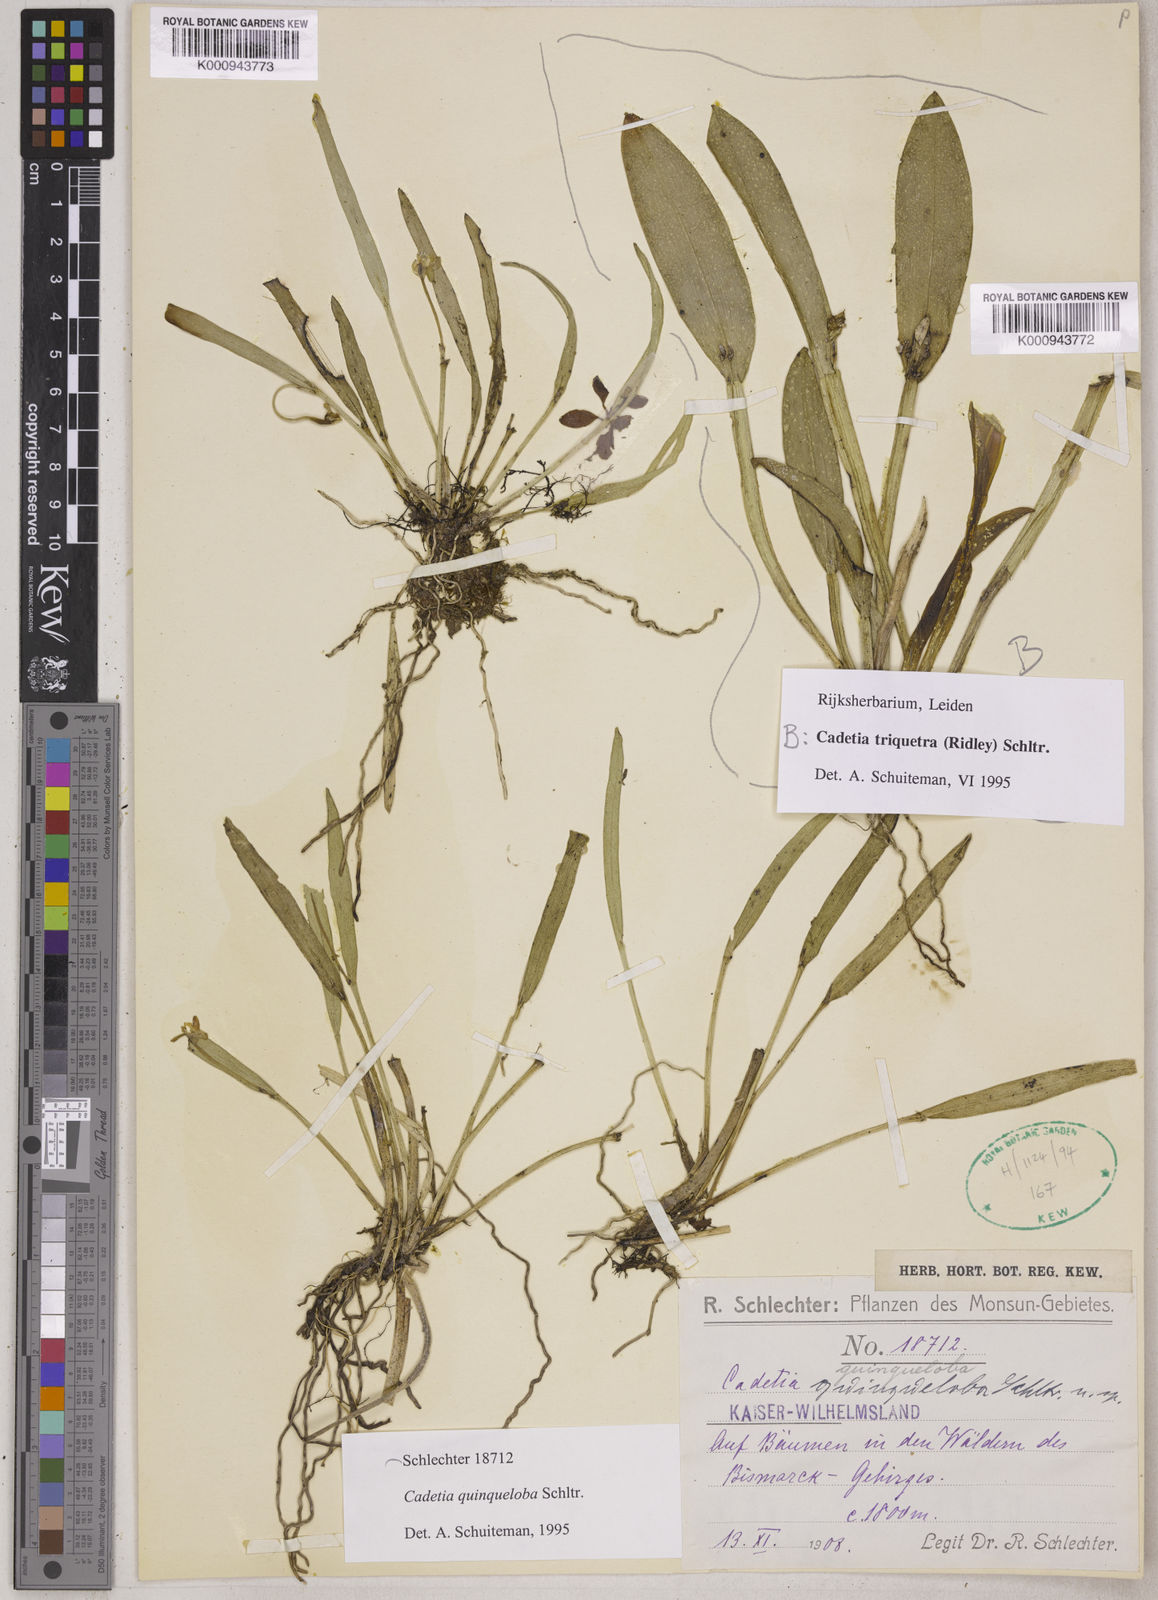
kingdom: Plantae
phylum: Tracheophyta
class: Liliopsida
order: Asparagales
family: Orchidaceae
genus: Dendrobium
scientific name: Dendrobium quinquelobum
